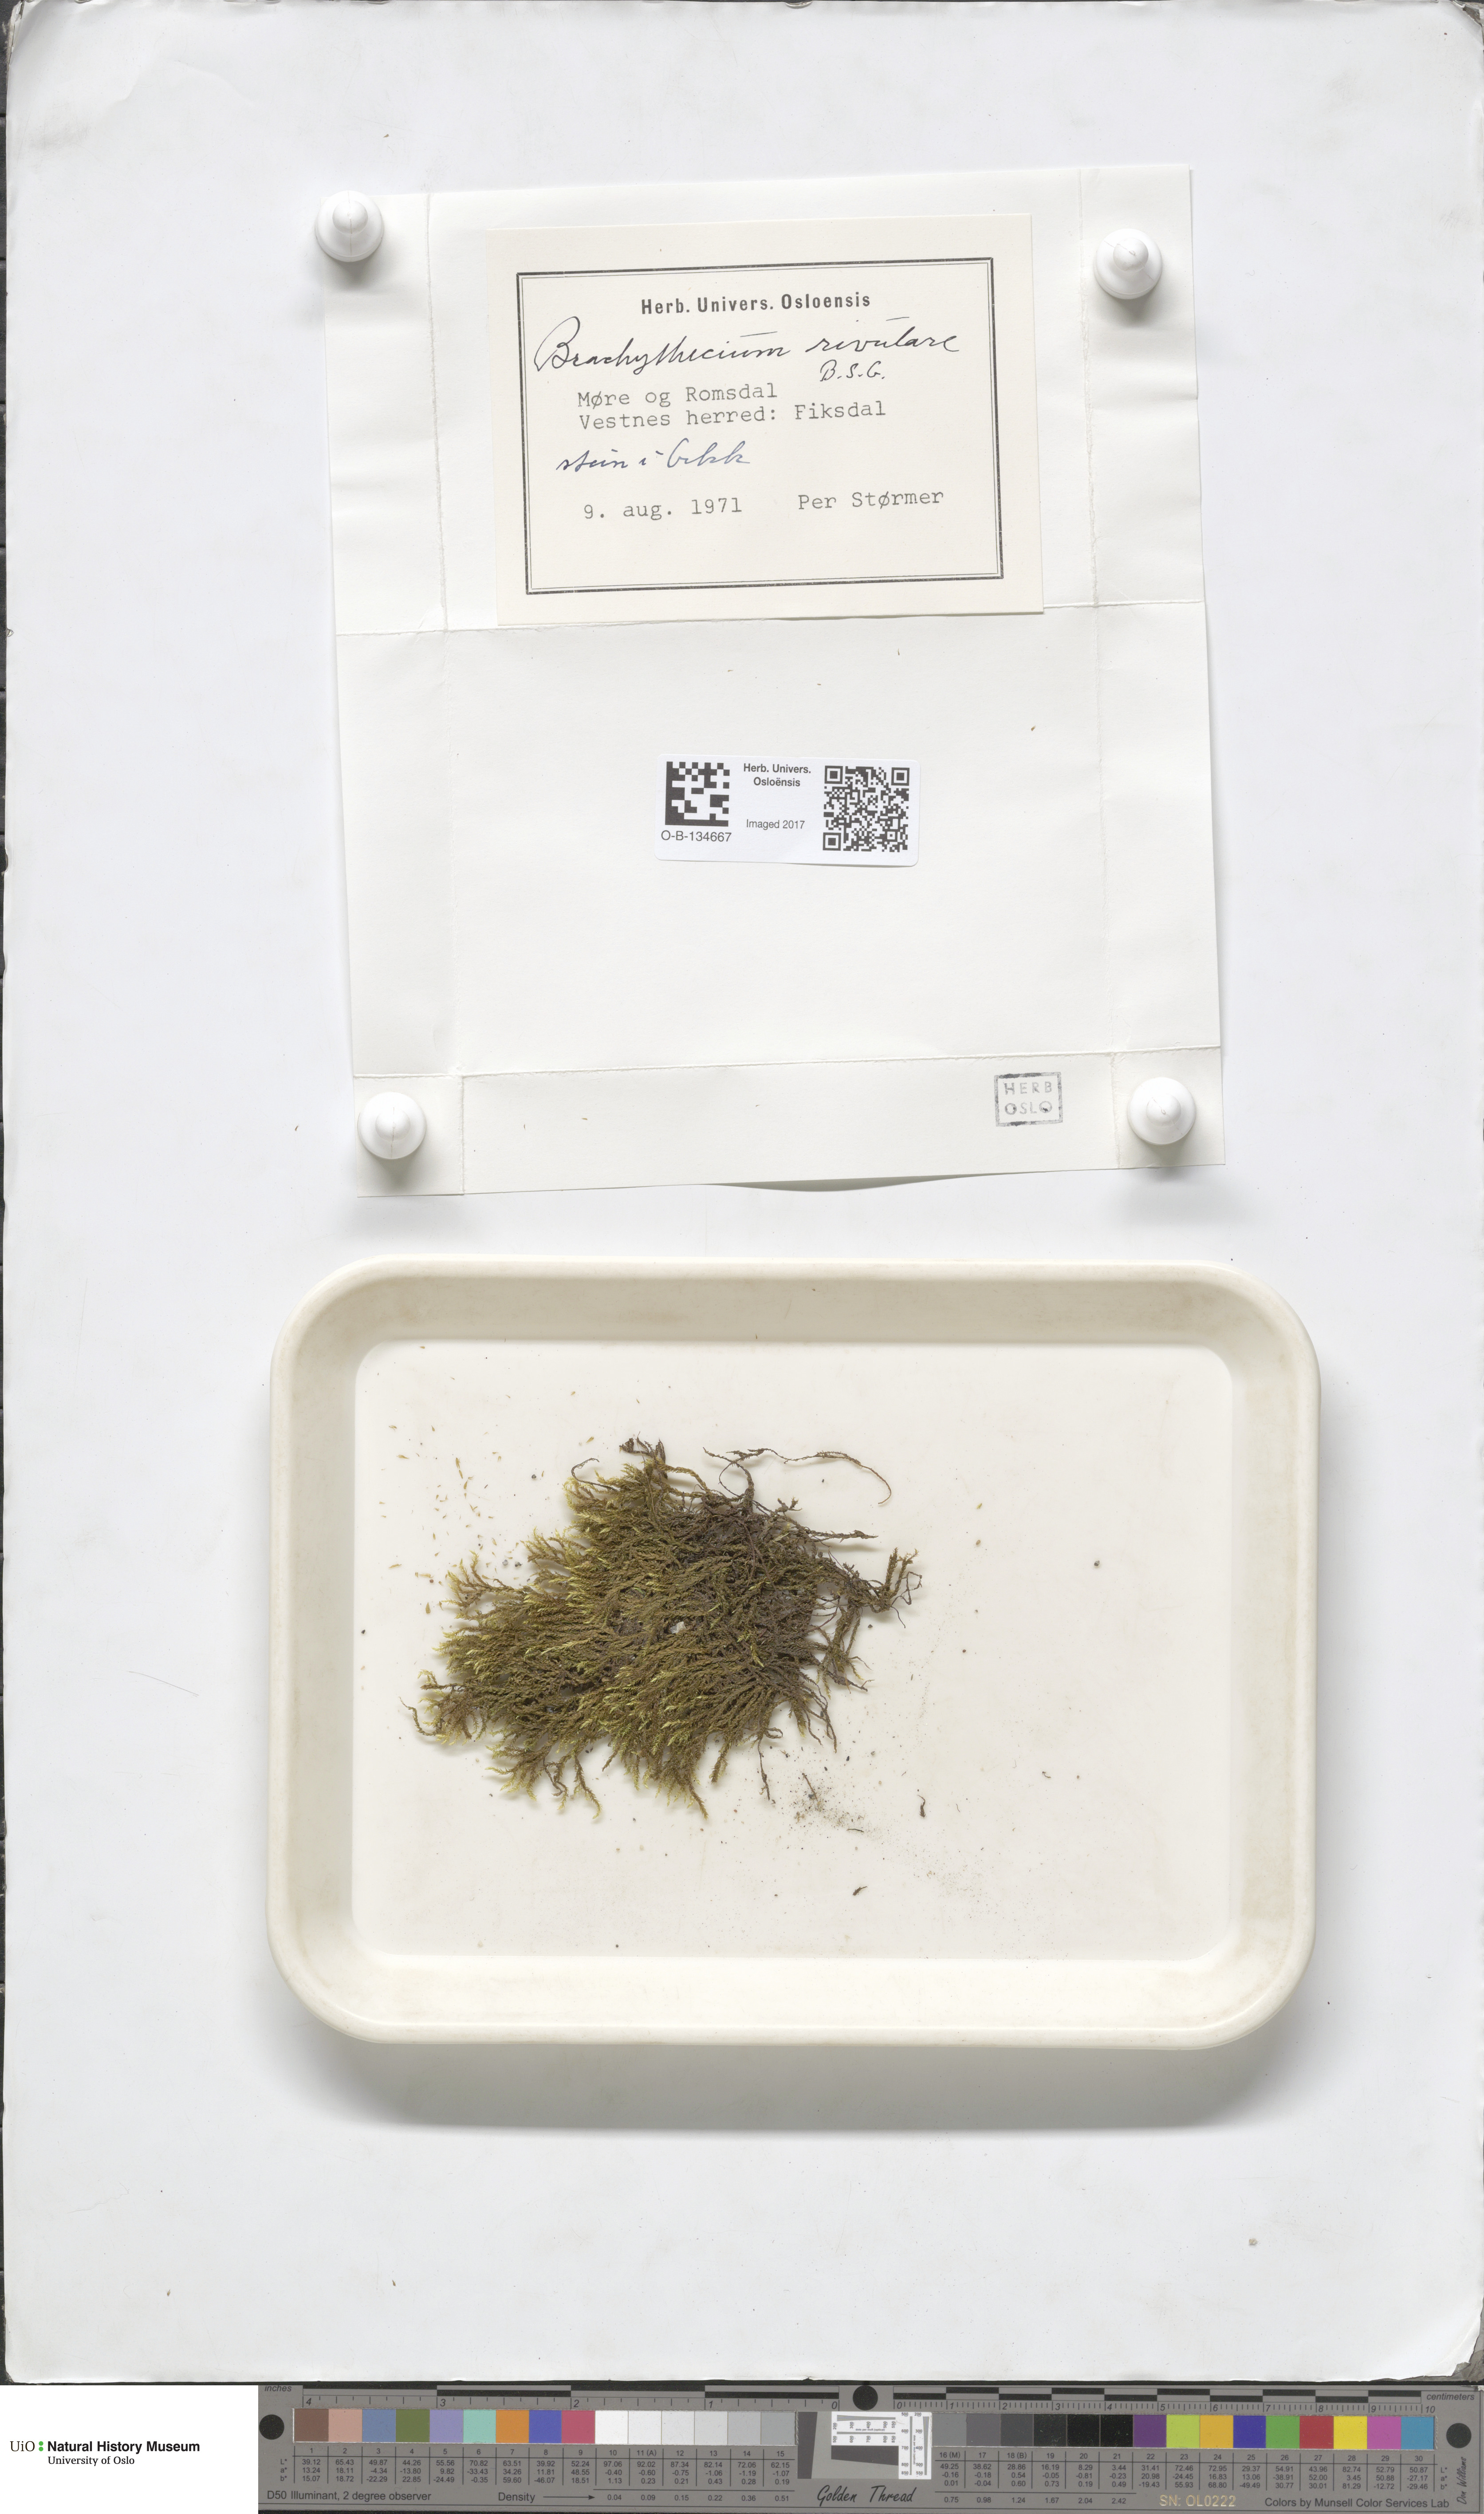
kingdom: Plantae
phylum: Bryophyta
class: Bryopsida
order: Hypnales
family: Brachytheciaceae
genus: Brachythecium
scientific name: Brachythecium rivulare
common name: River ragged moss
